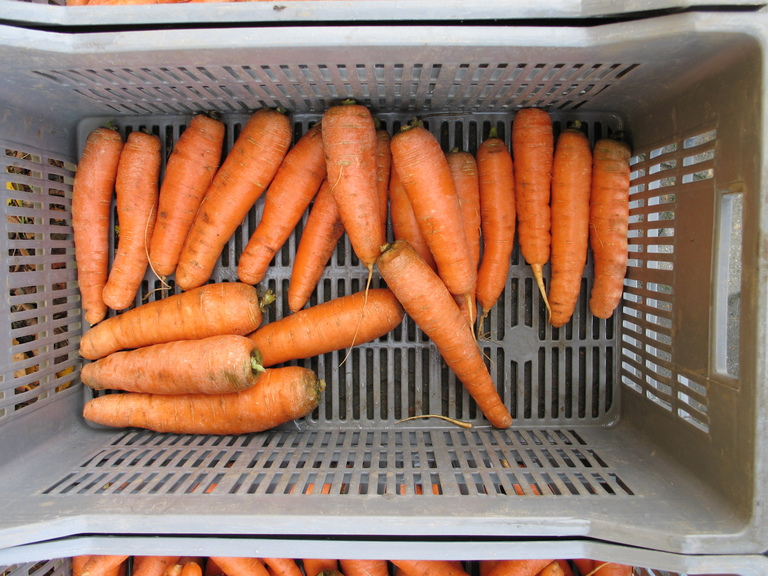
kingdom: Plantae
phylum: Tracheophyta
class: Magnoliopsida
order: Apiales
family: Apiaceae
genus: Daucus
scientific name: Daucus carota
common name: Wild carrot
